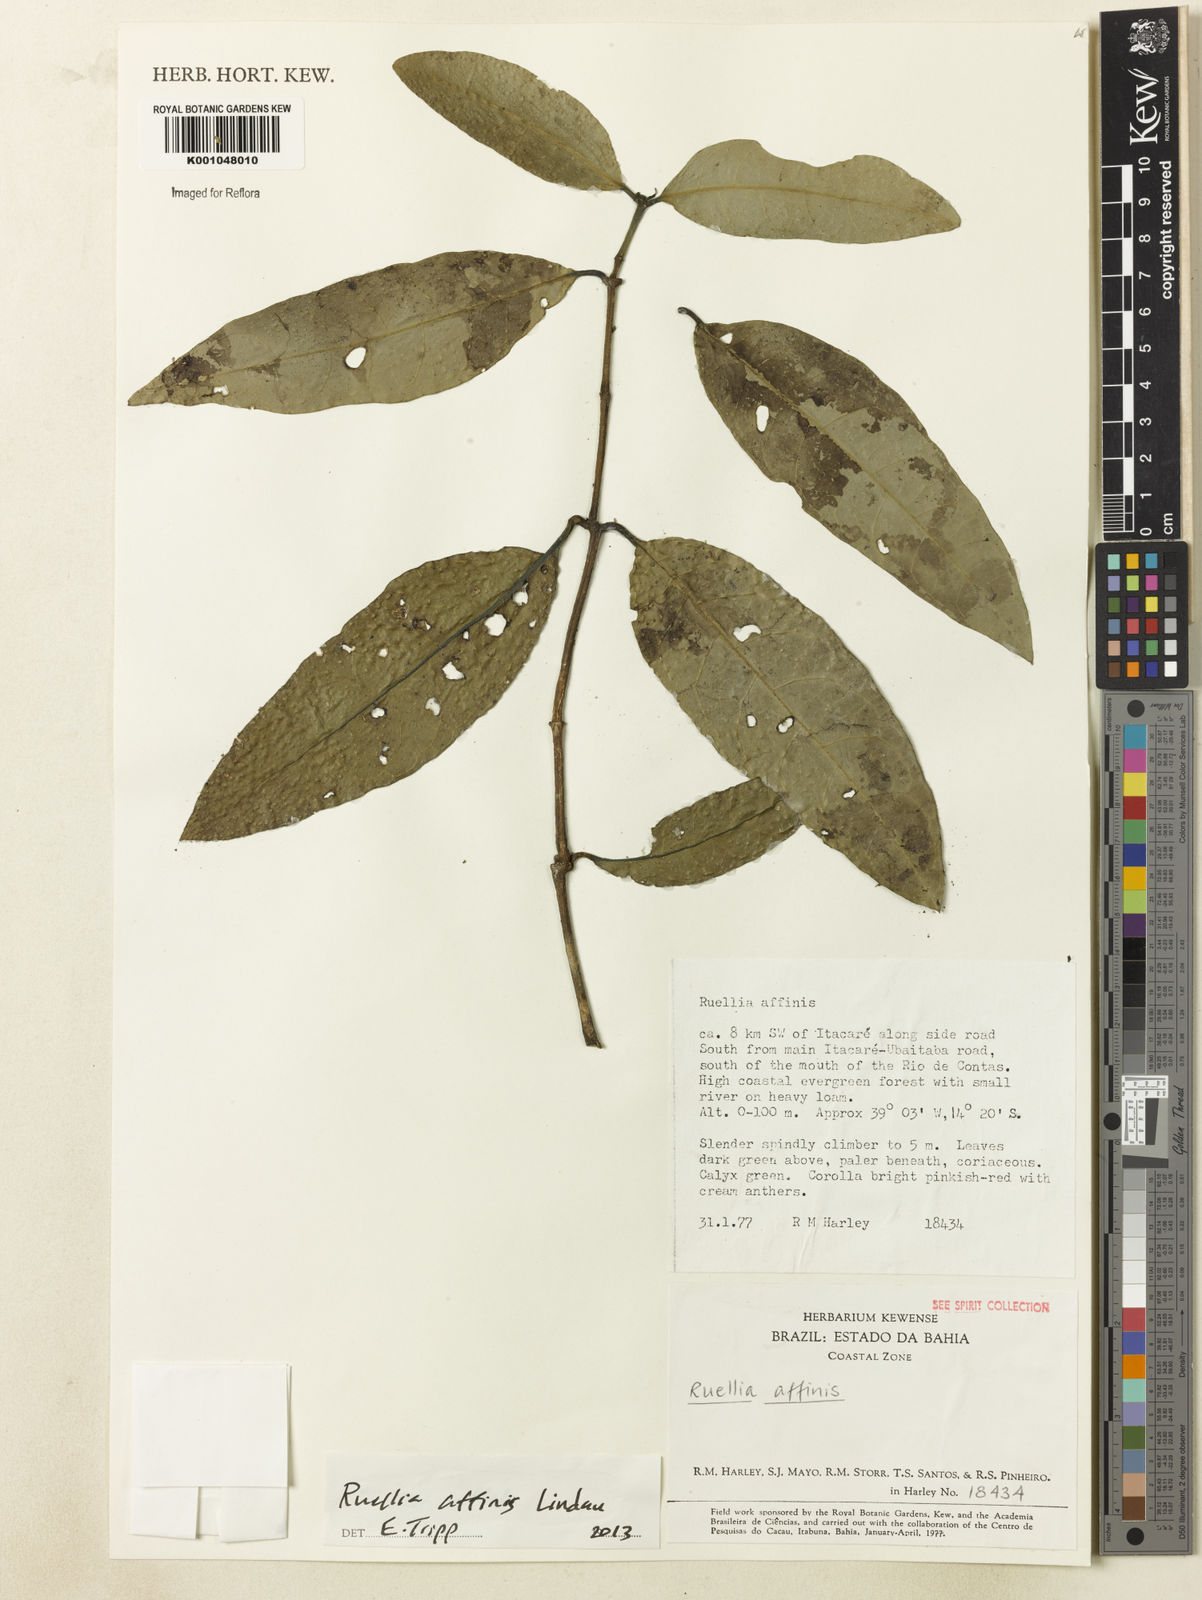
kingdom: Plantae
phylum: Tracheophyta
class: Magnoliopsida
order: Lamiales
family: Acanthaceae
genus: Ruellia
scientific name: Ruellia adenocalyx
